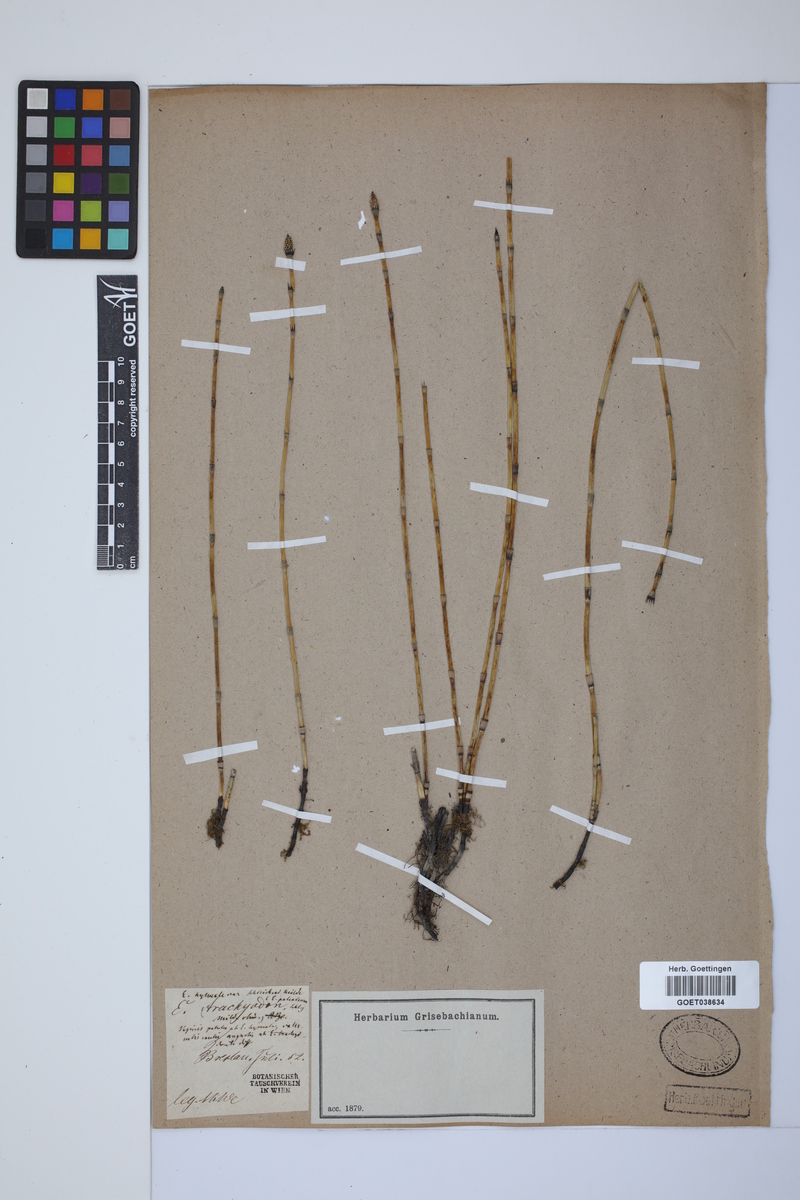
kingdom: Plantae
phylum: Tracheophyta
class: Polypodiopsida
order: Equisetales
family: Equisetaceae
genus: Equisetum
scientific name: Equisetum hyemale
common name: Rough horsetail
